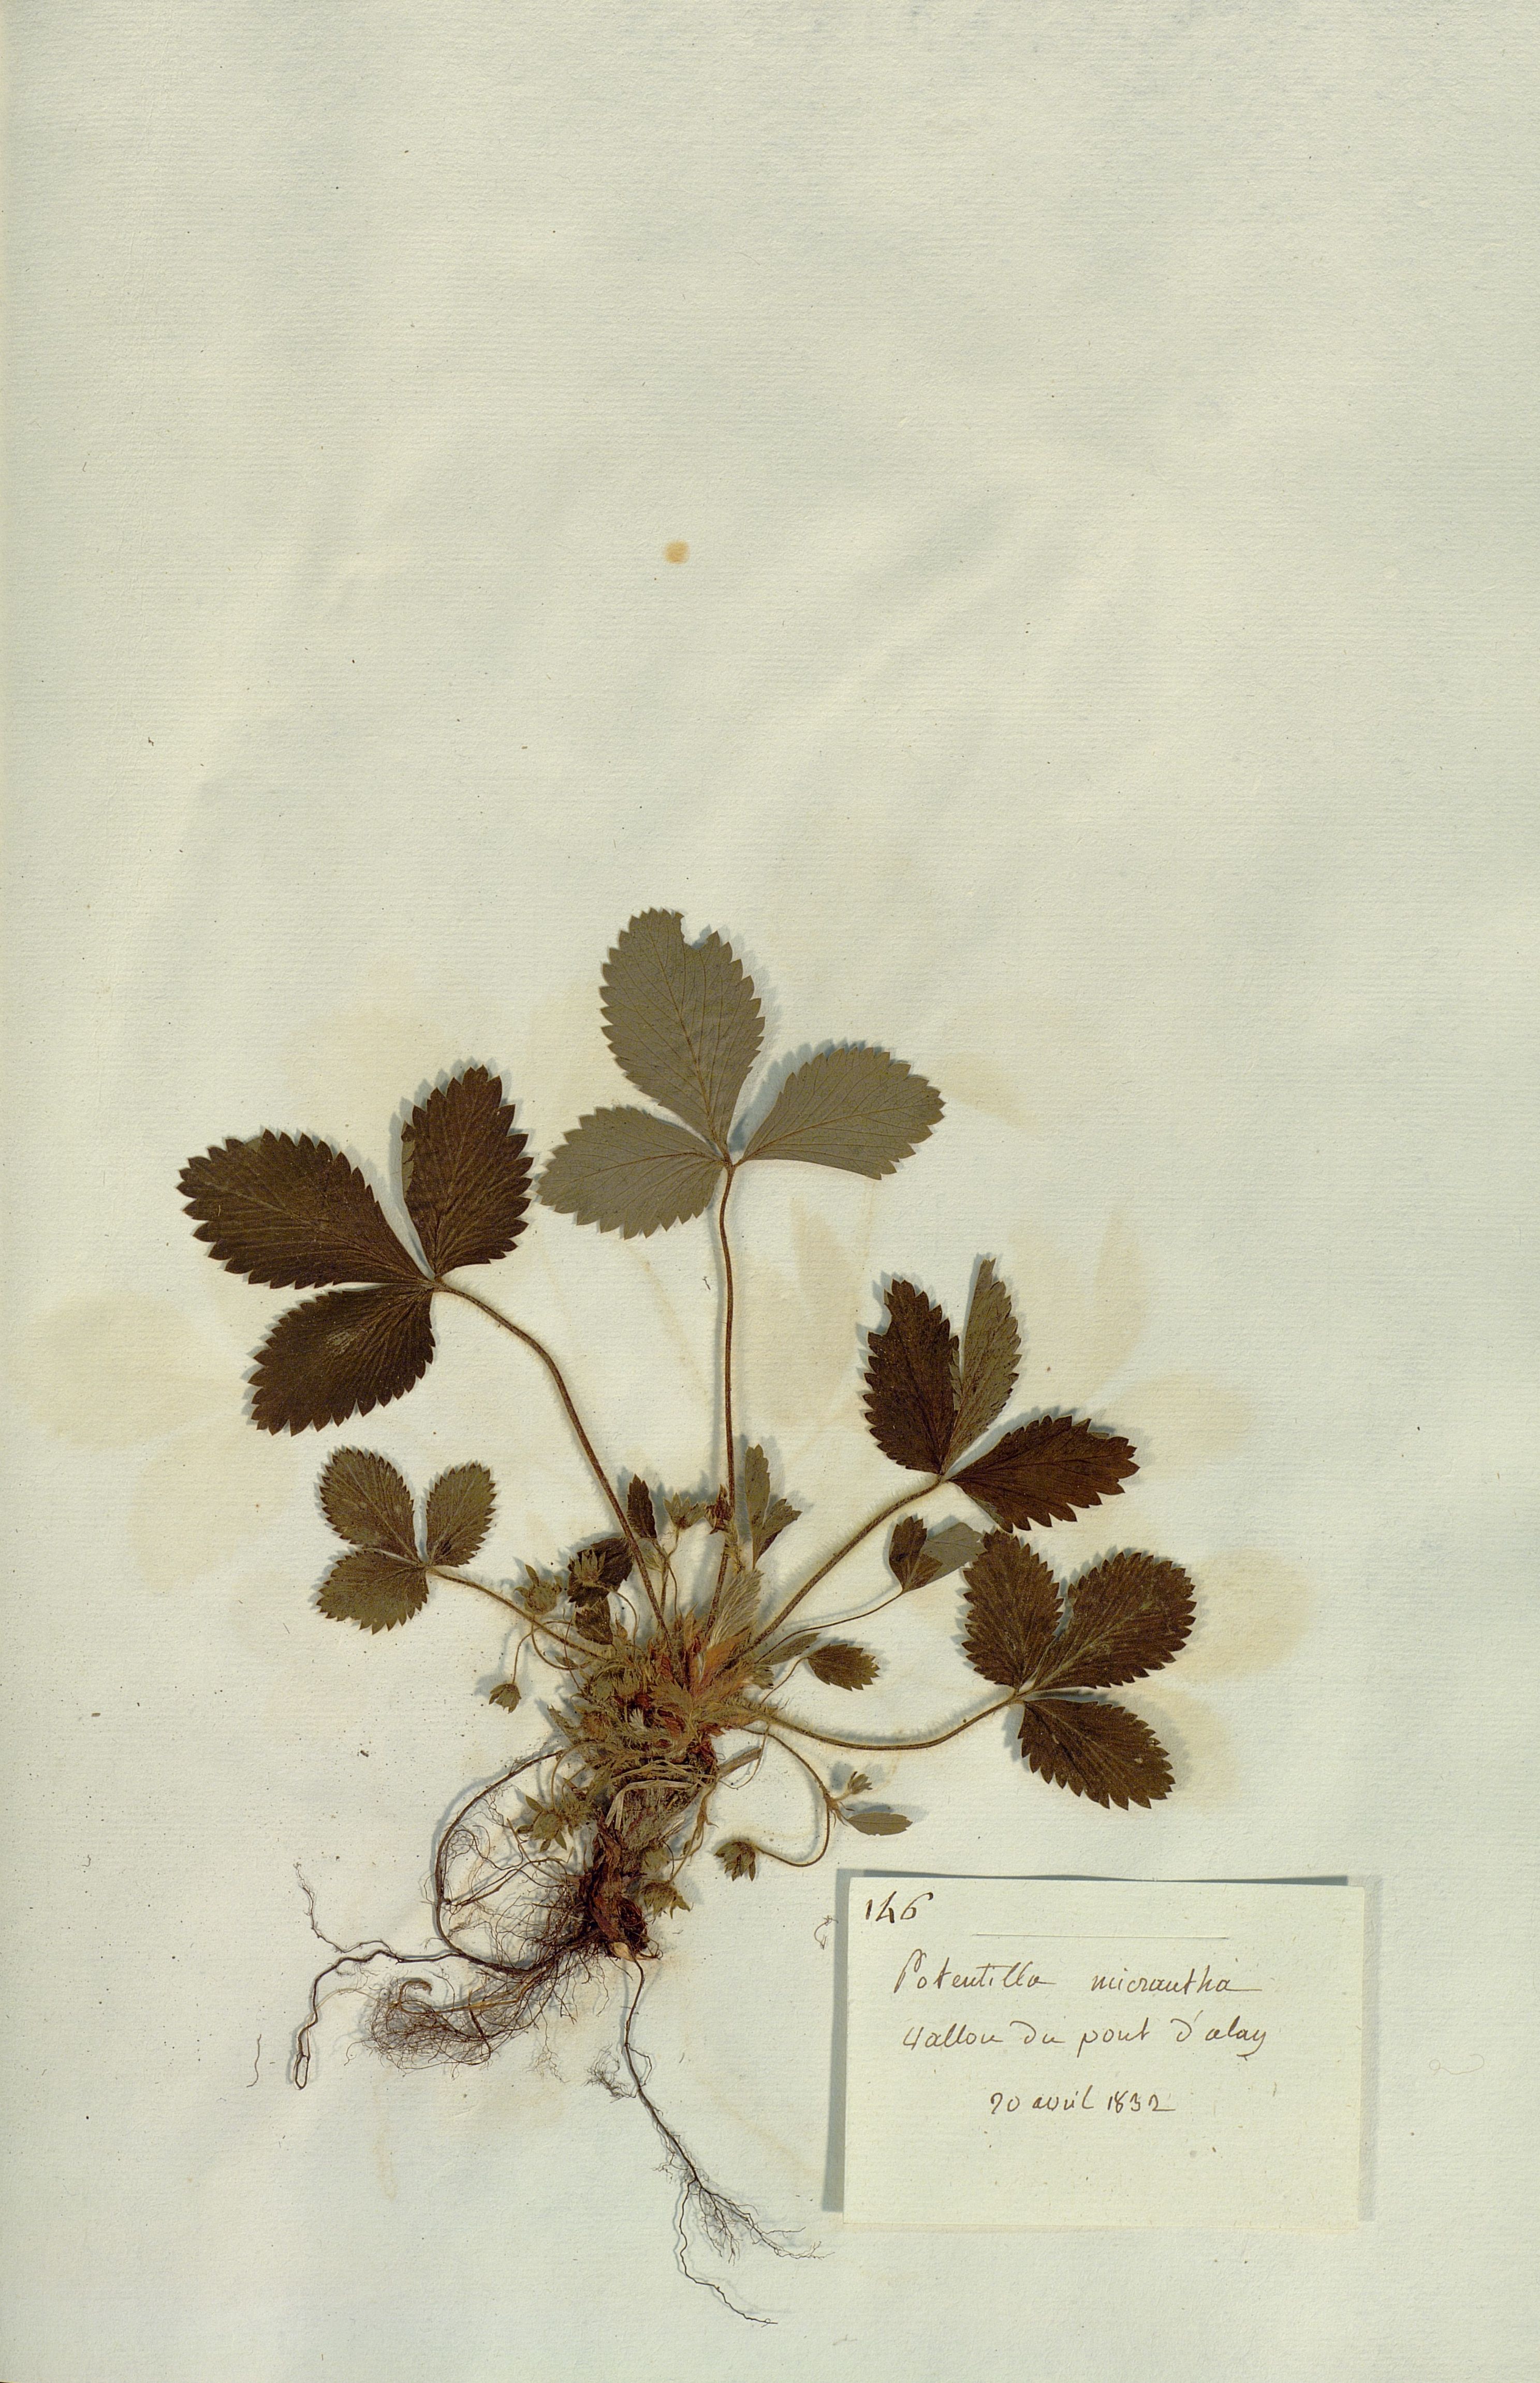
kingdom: Plantae
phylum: Tracheophyta
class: Magnoliopsida
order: Rosales
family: Rosaceae
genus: Potentilla
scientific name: Potentilla micrantha
